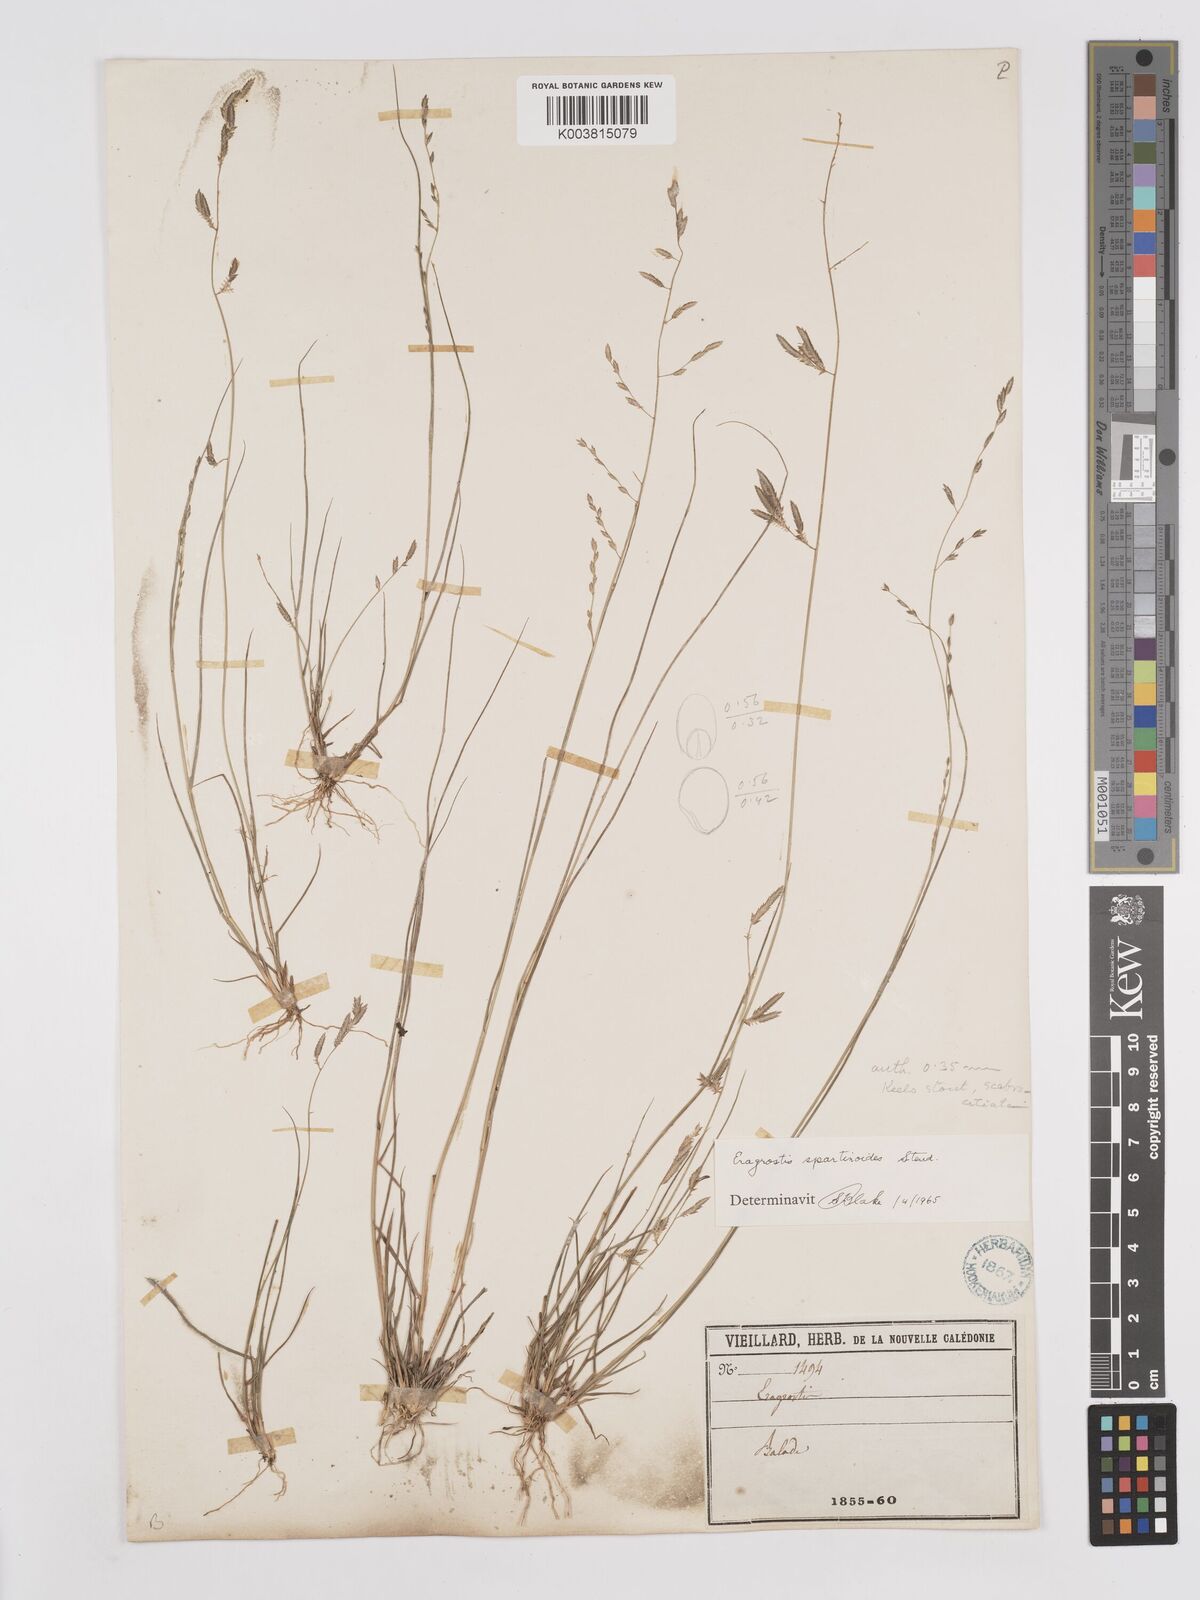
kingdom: Plantae
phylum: Tracheophyta
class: Liliopsida
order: Poales
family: Poaceae
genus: Eragrostis
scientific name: Eragrostis brownii
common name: Lovegrass
